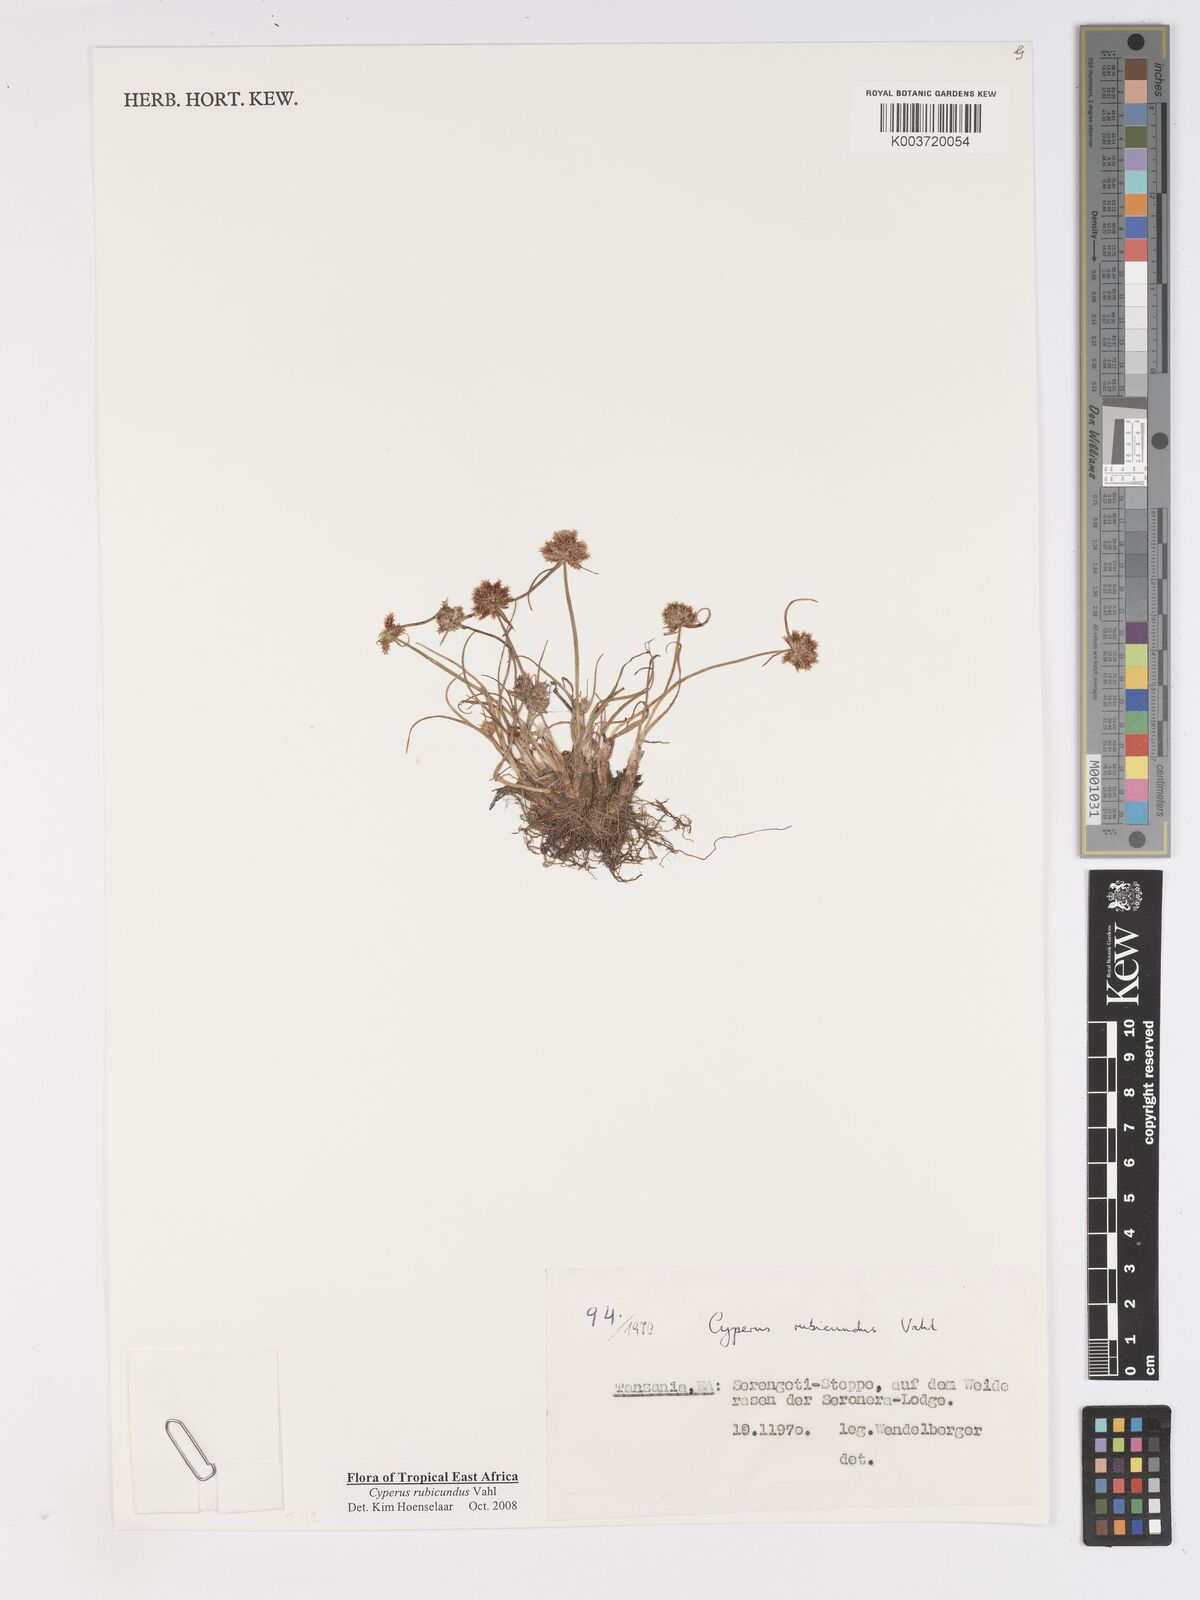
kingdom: Plantae
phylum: Tracheophyta
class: Liliopsida
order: Poales
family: Cyperaceae
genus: Cyperus
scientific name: Cyperus rubicundus
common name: Coco-grass
